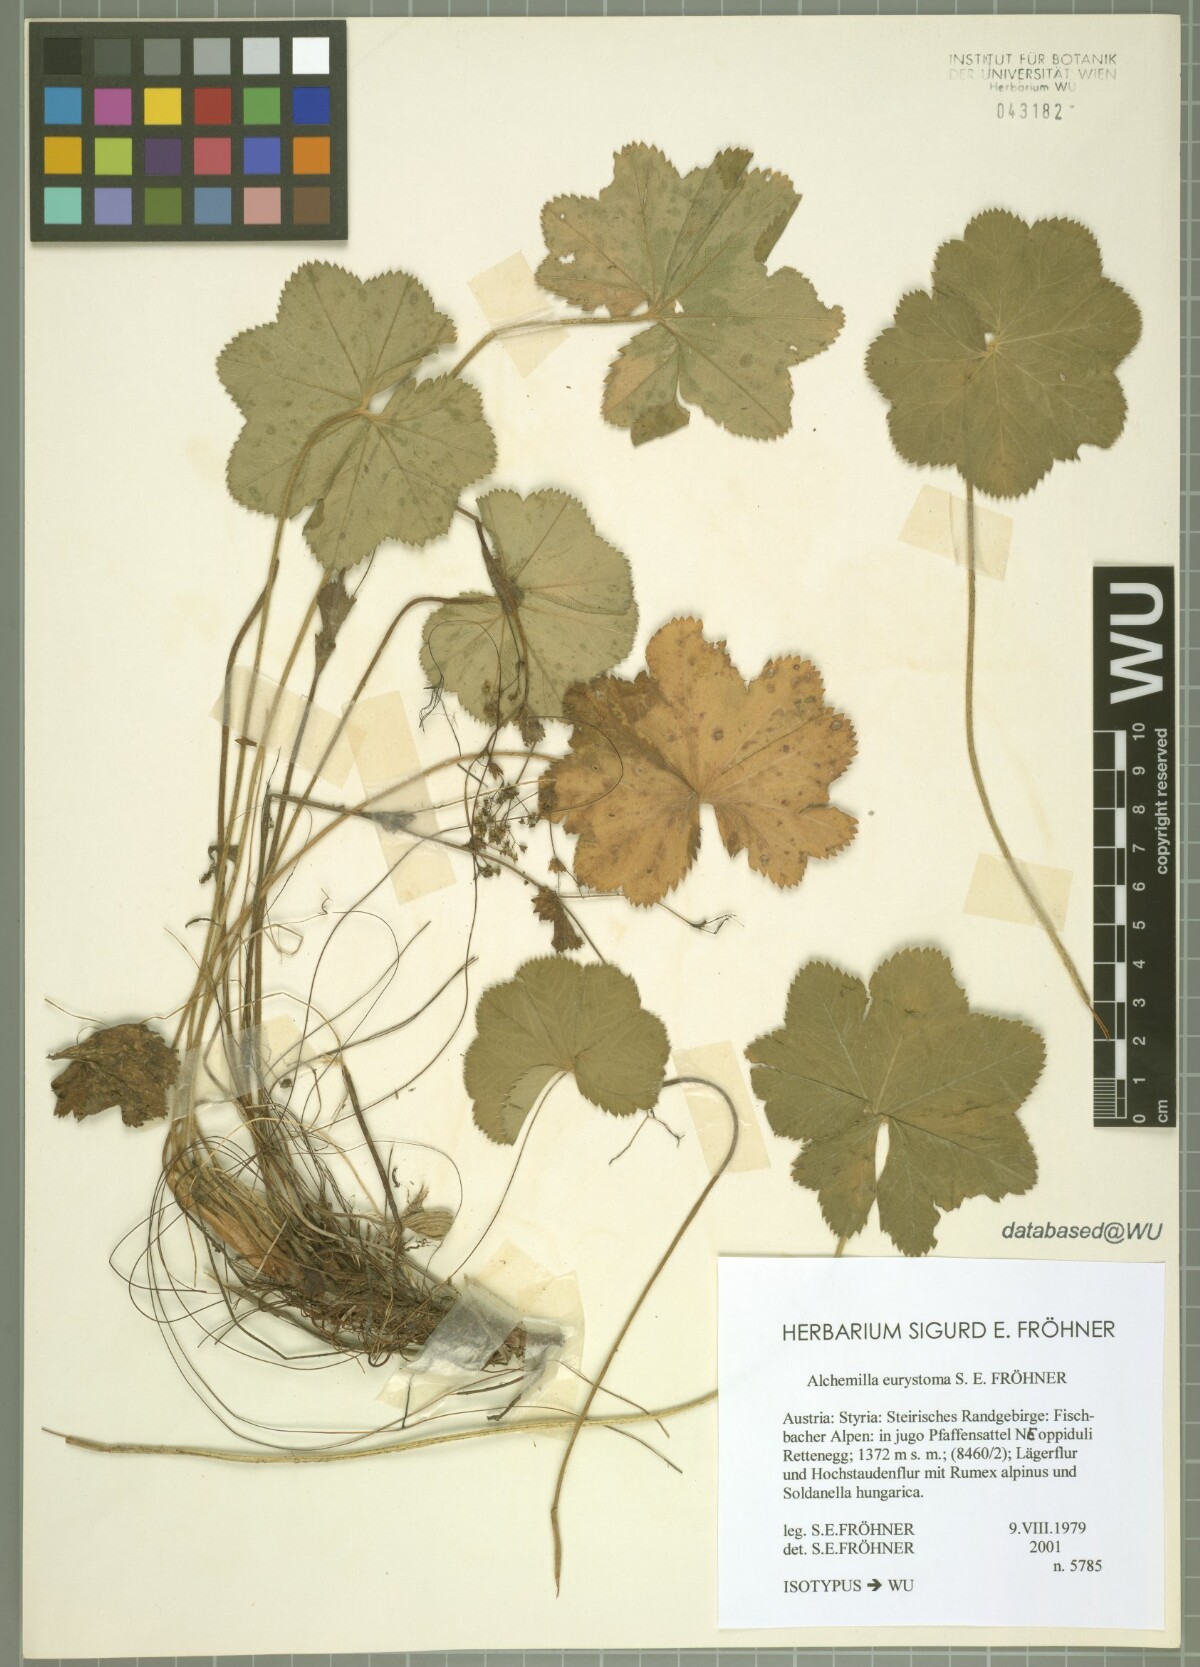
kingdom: Plantae
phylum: Tracheophyta
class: Magnoliopsida
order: Rosales
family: Rosaceae
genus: Alchemilla
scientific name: Alchemilla eurystoma
